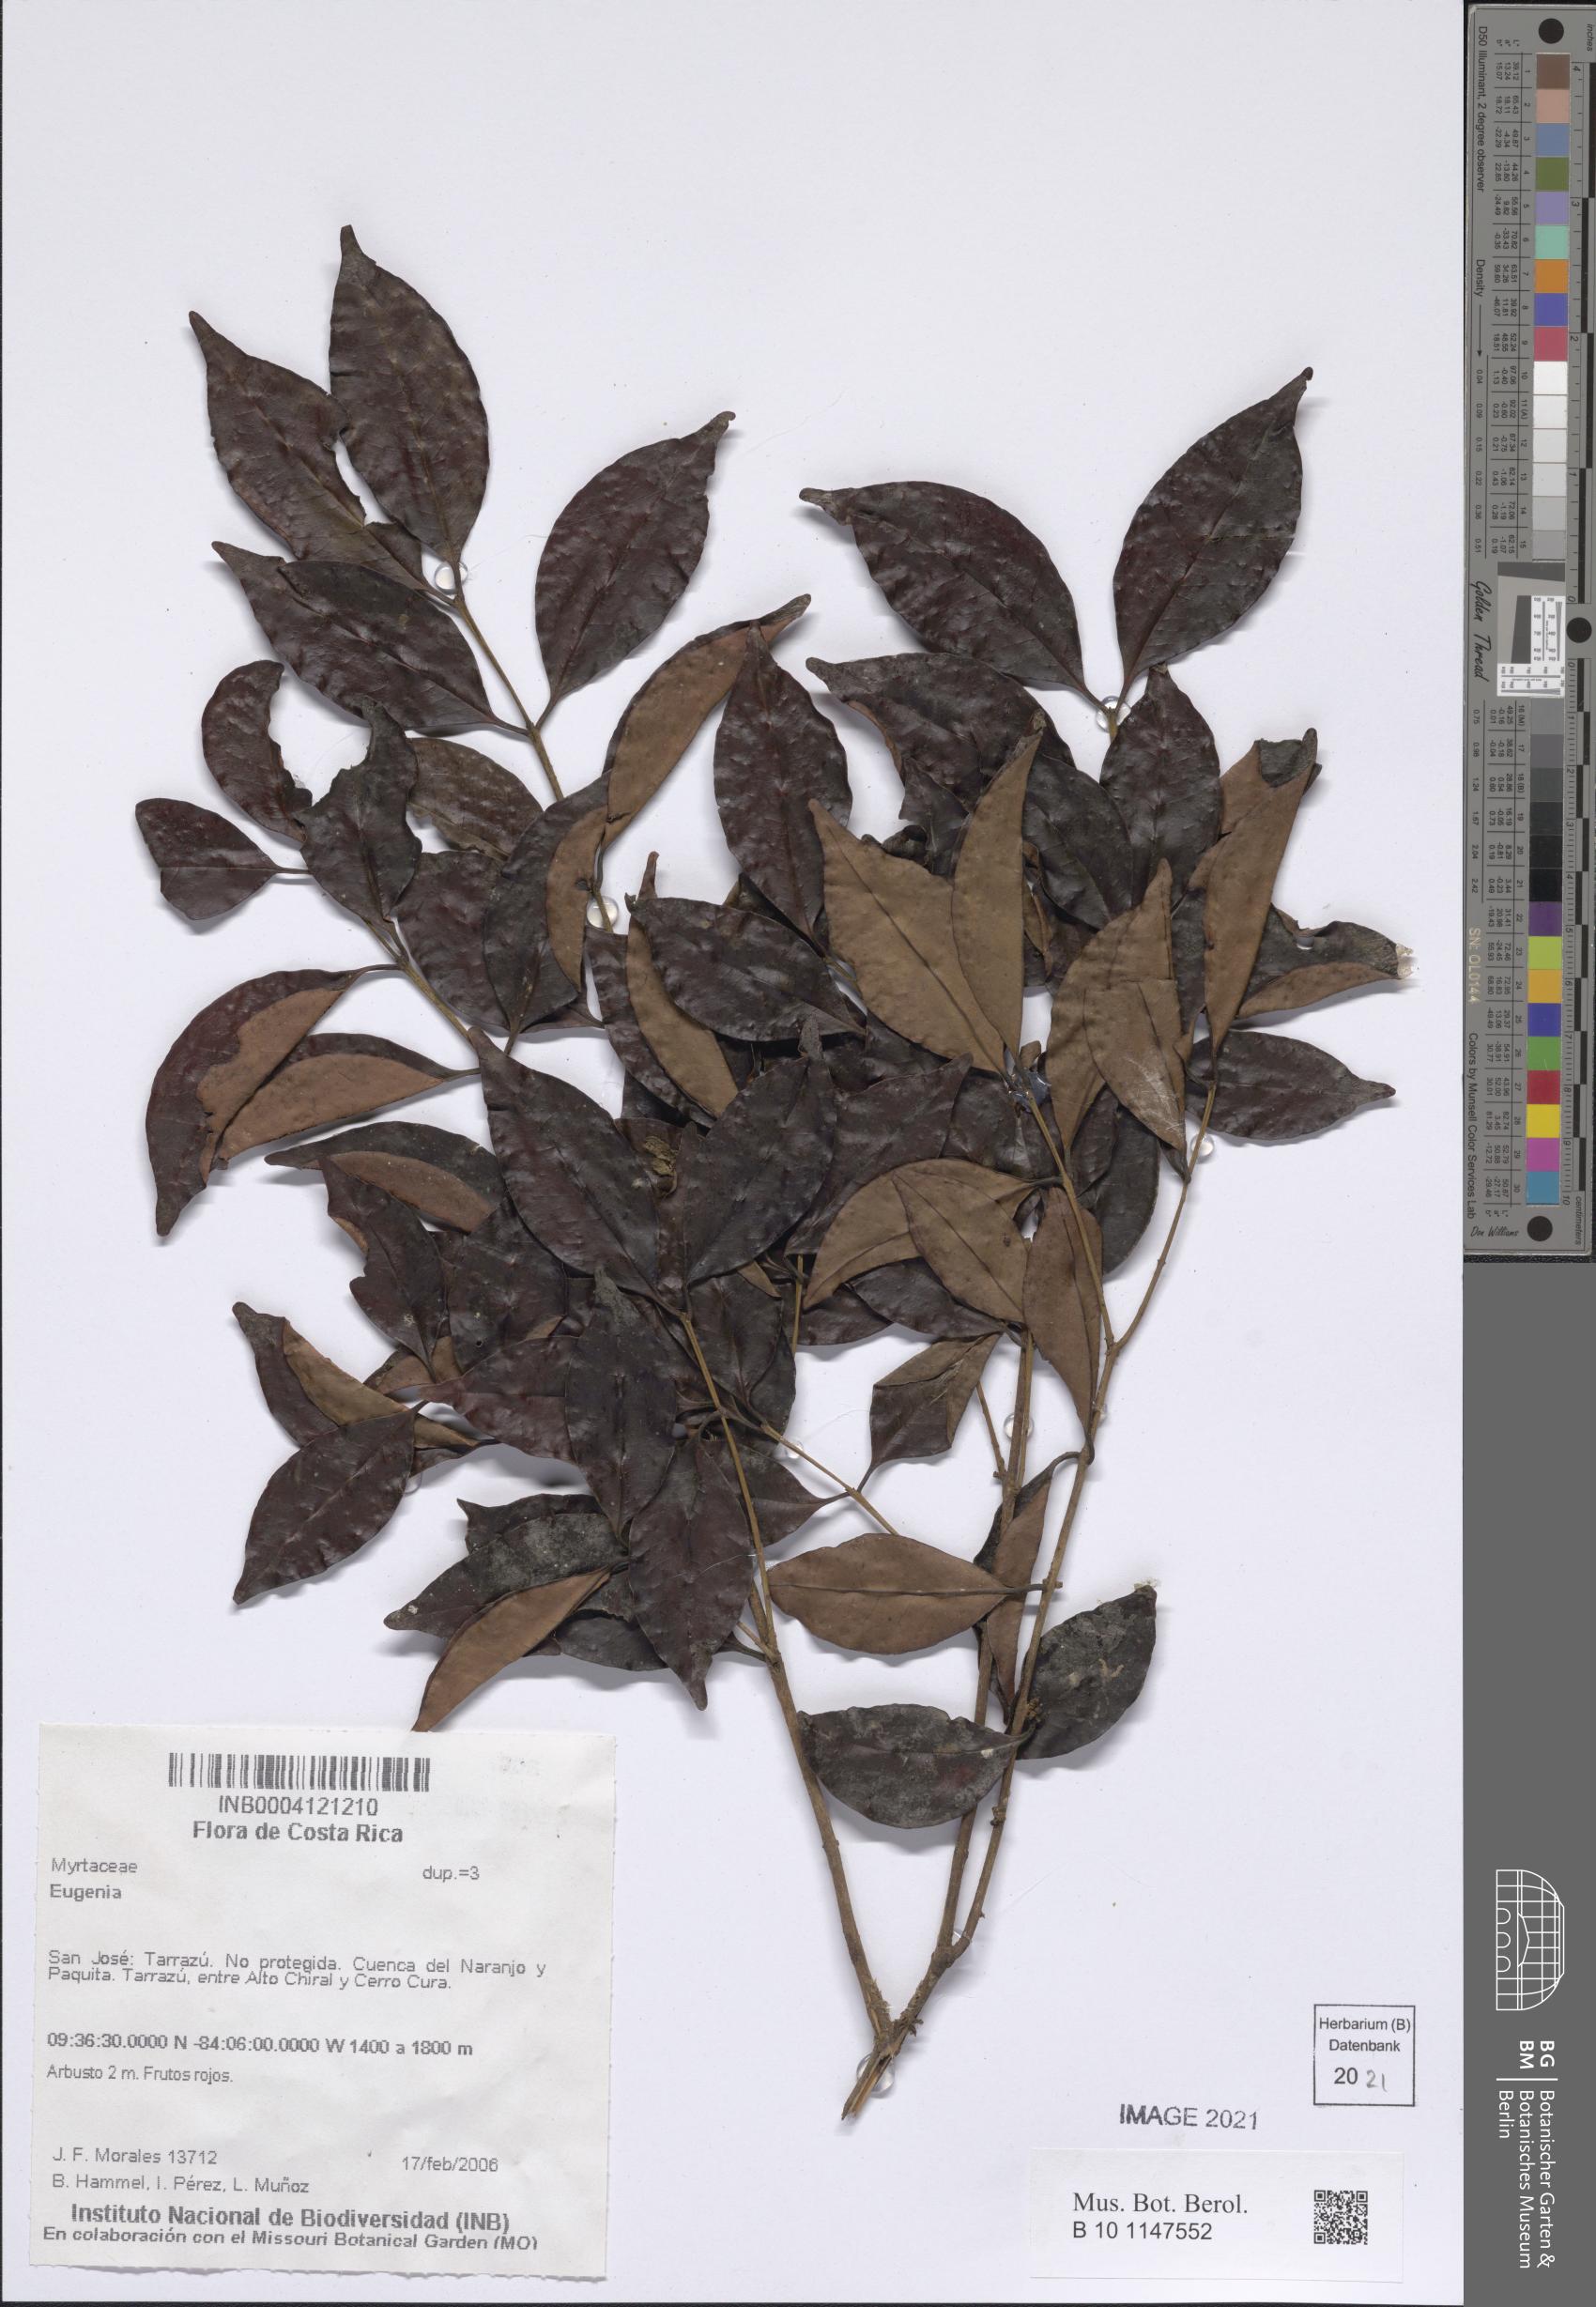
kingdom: Plantae
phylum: Tracheophyta
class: Magnoliopsida
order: Myrtales
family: Myrtaceae
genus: Eugenia
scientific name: Eugenia
